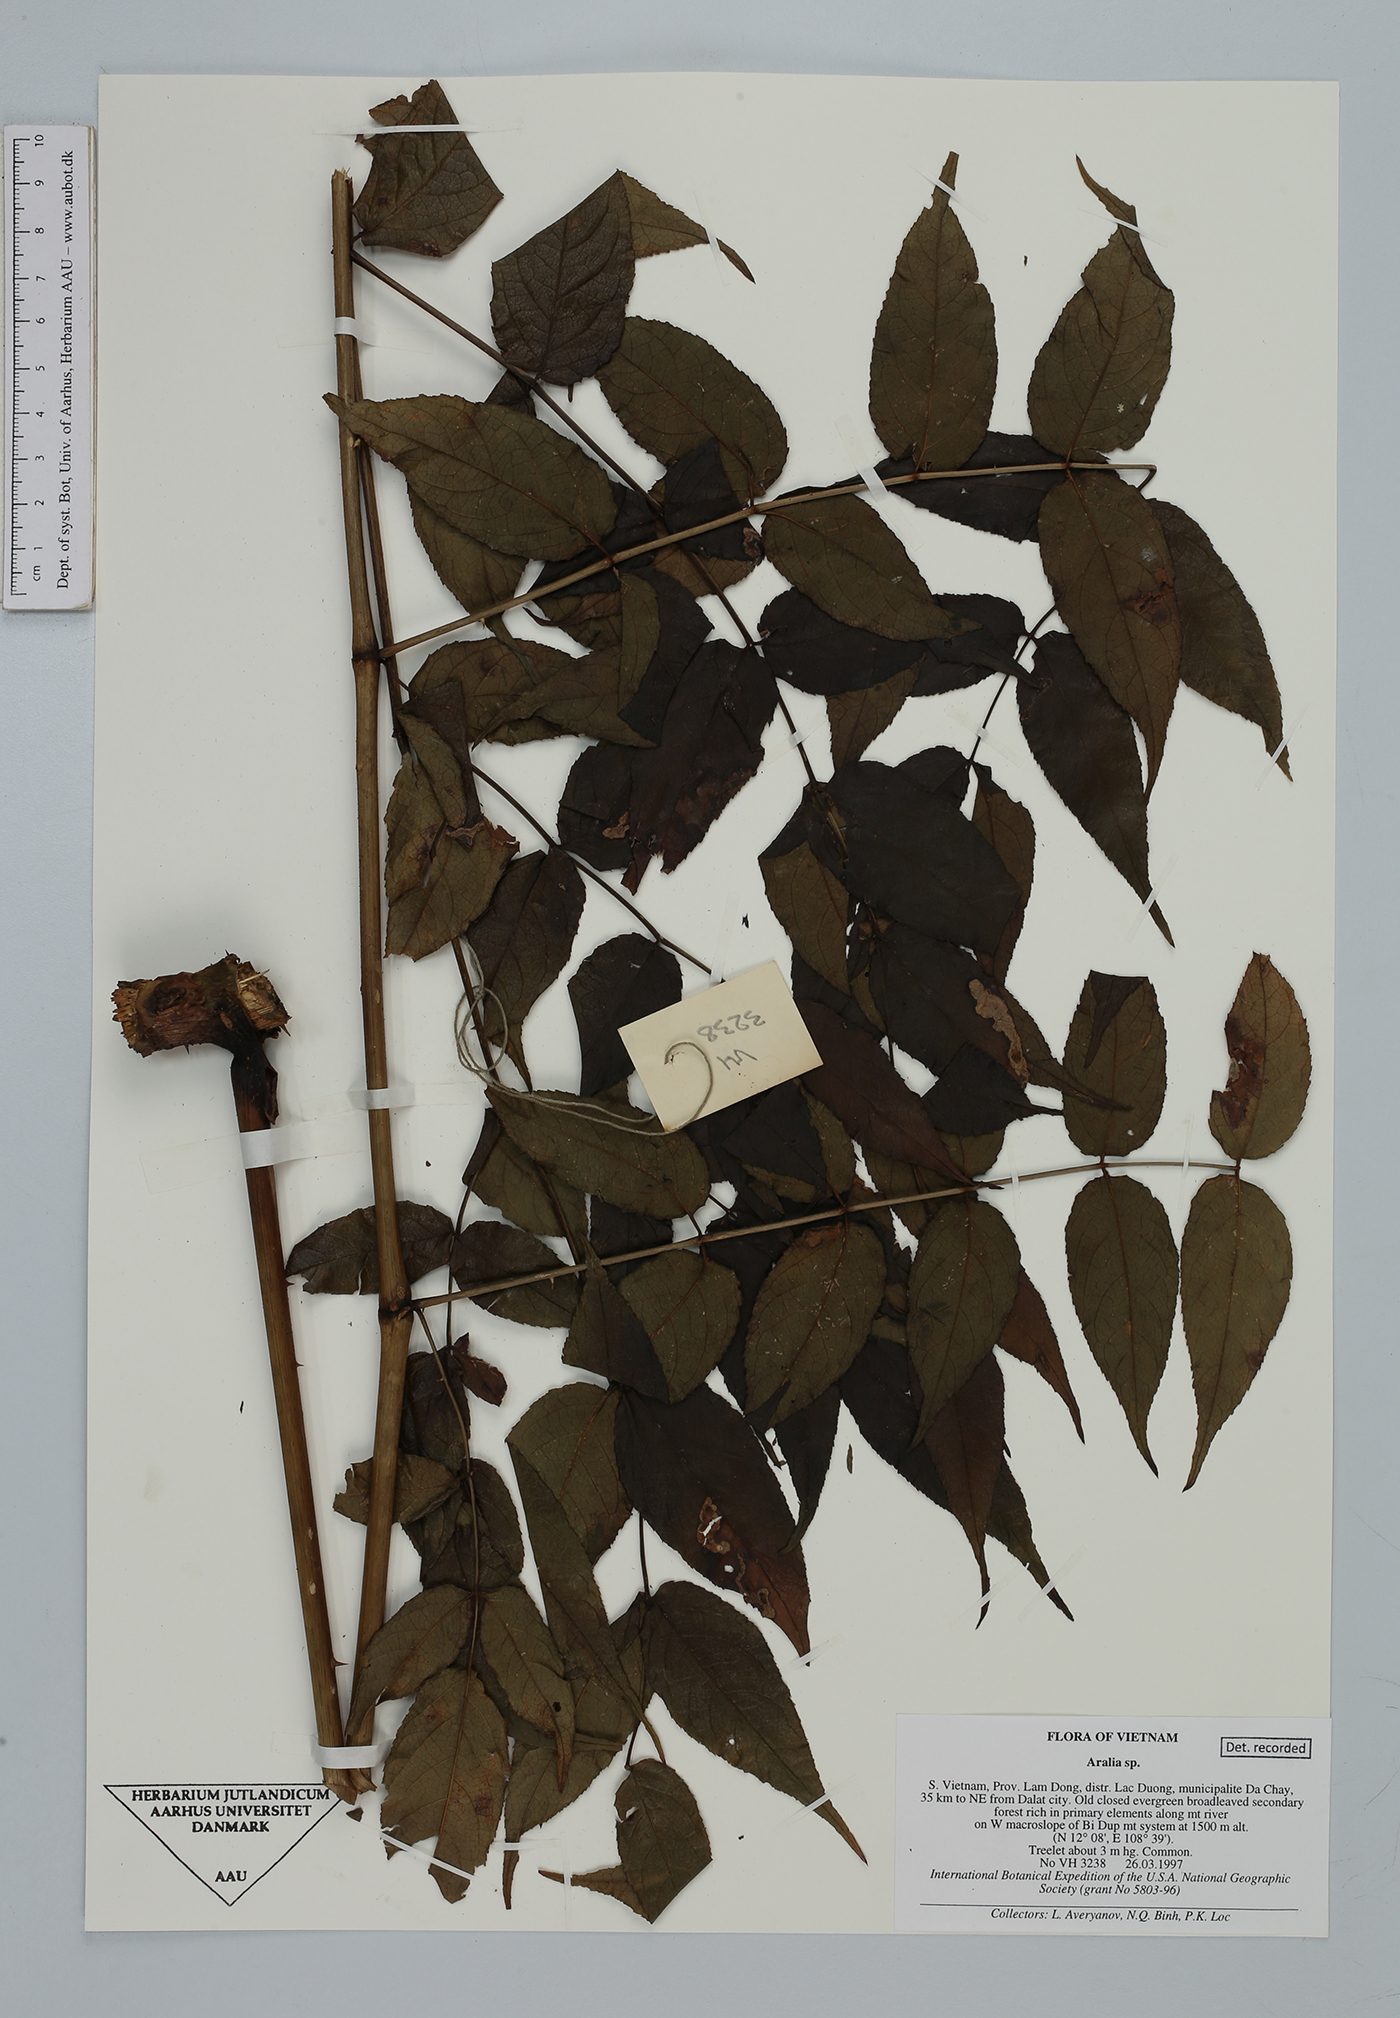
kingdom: Plantae
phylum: Tracheophyta
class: Magnoliopsida
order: Apiales
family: Araliaceae
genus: Aralia
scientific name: Aralia
